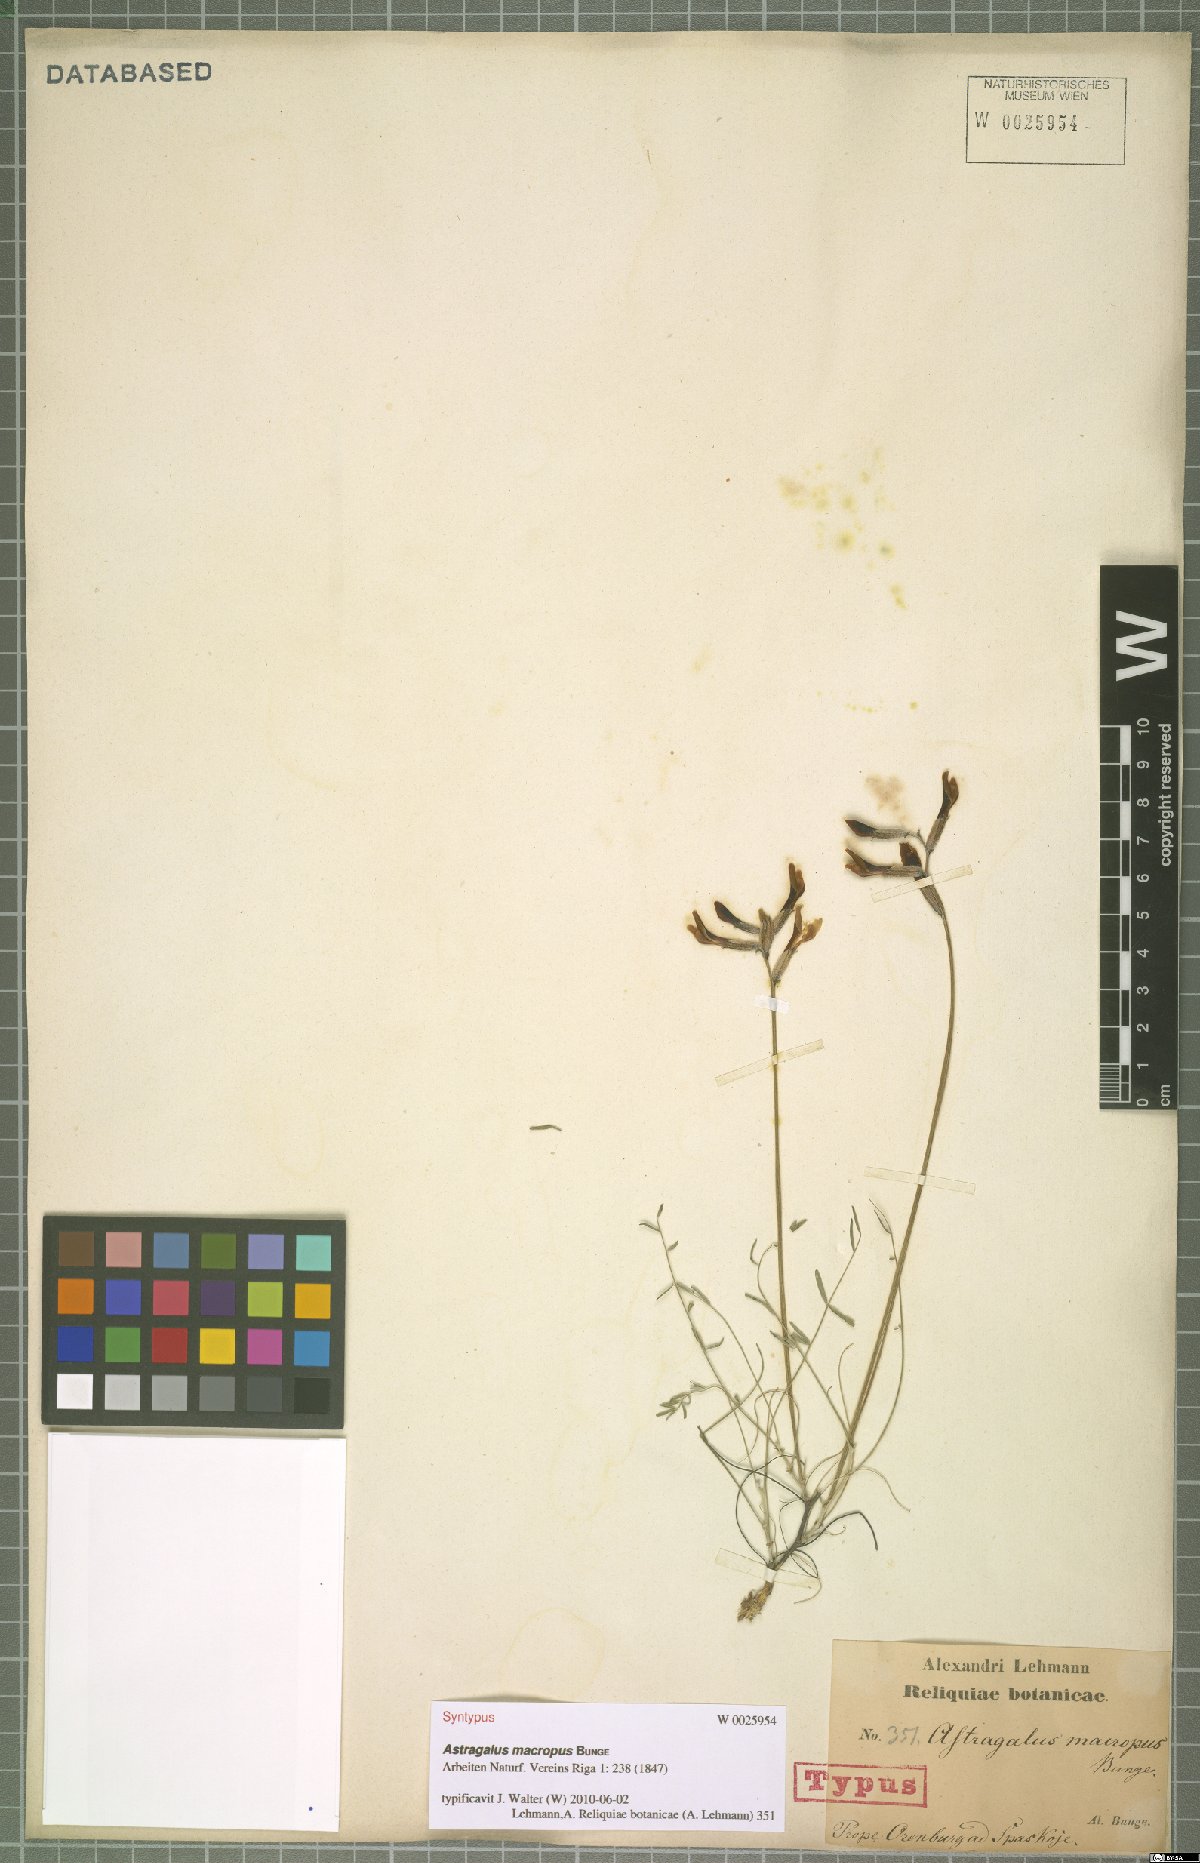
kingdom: Plantae
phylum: Tracheophyta
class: Magnoliopsida
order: Fabales
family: Fabaceae
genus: Astragalus
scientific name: Astragalus macropus
